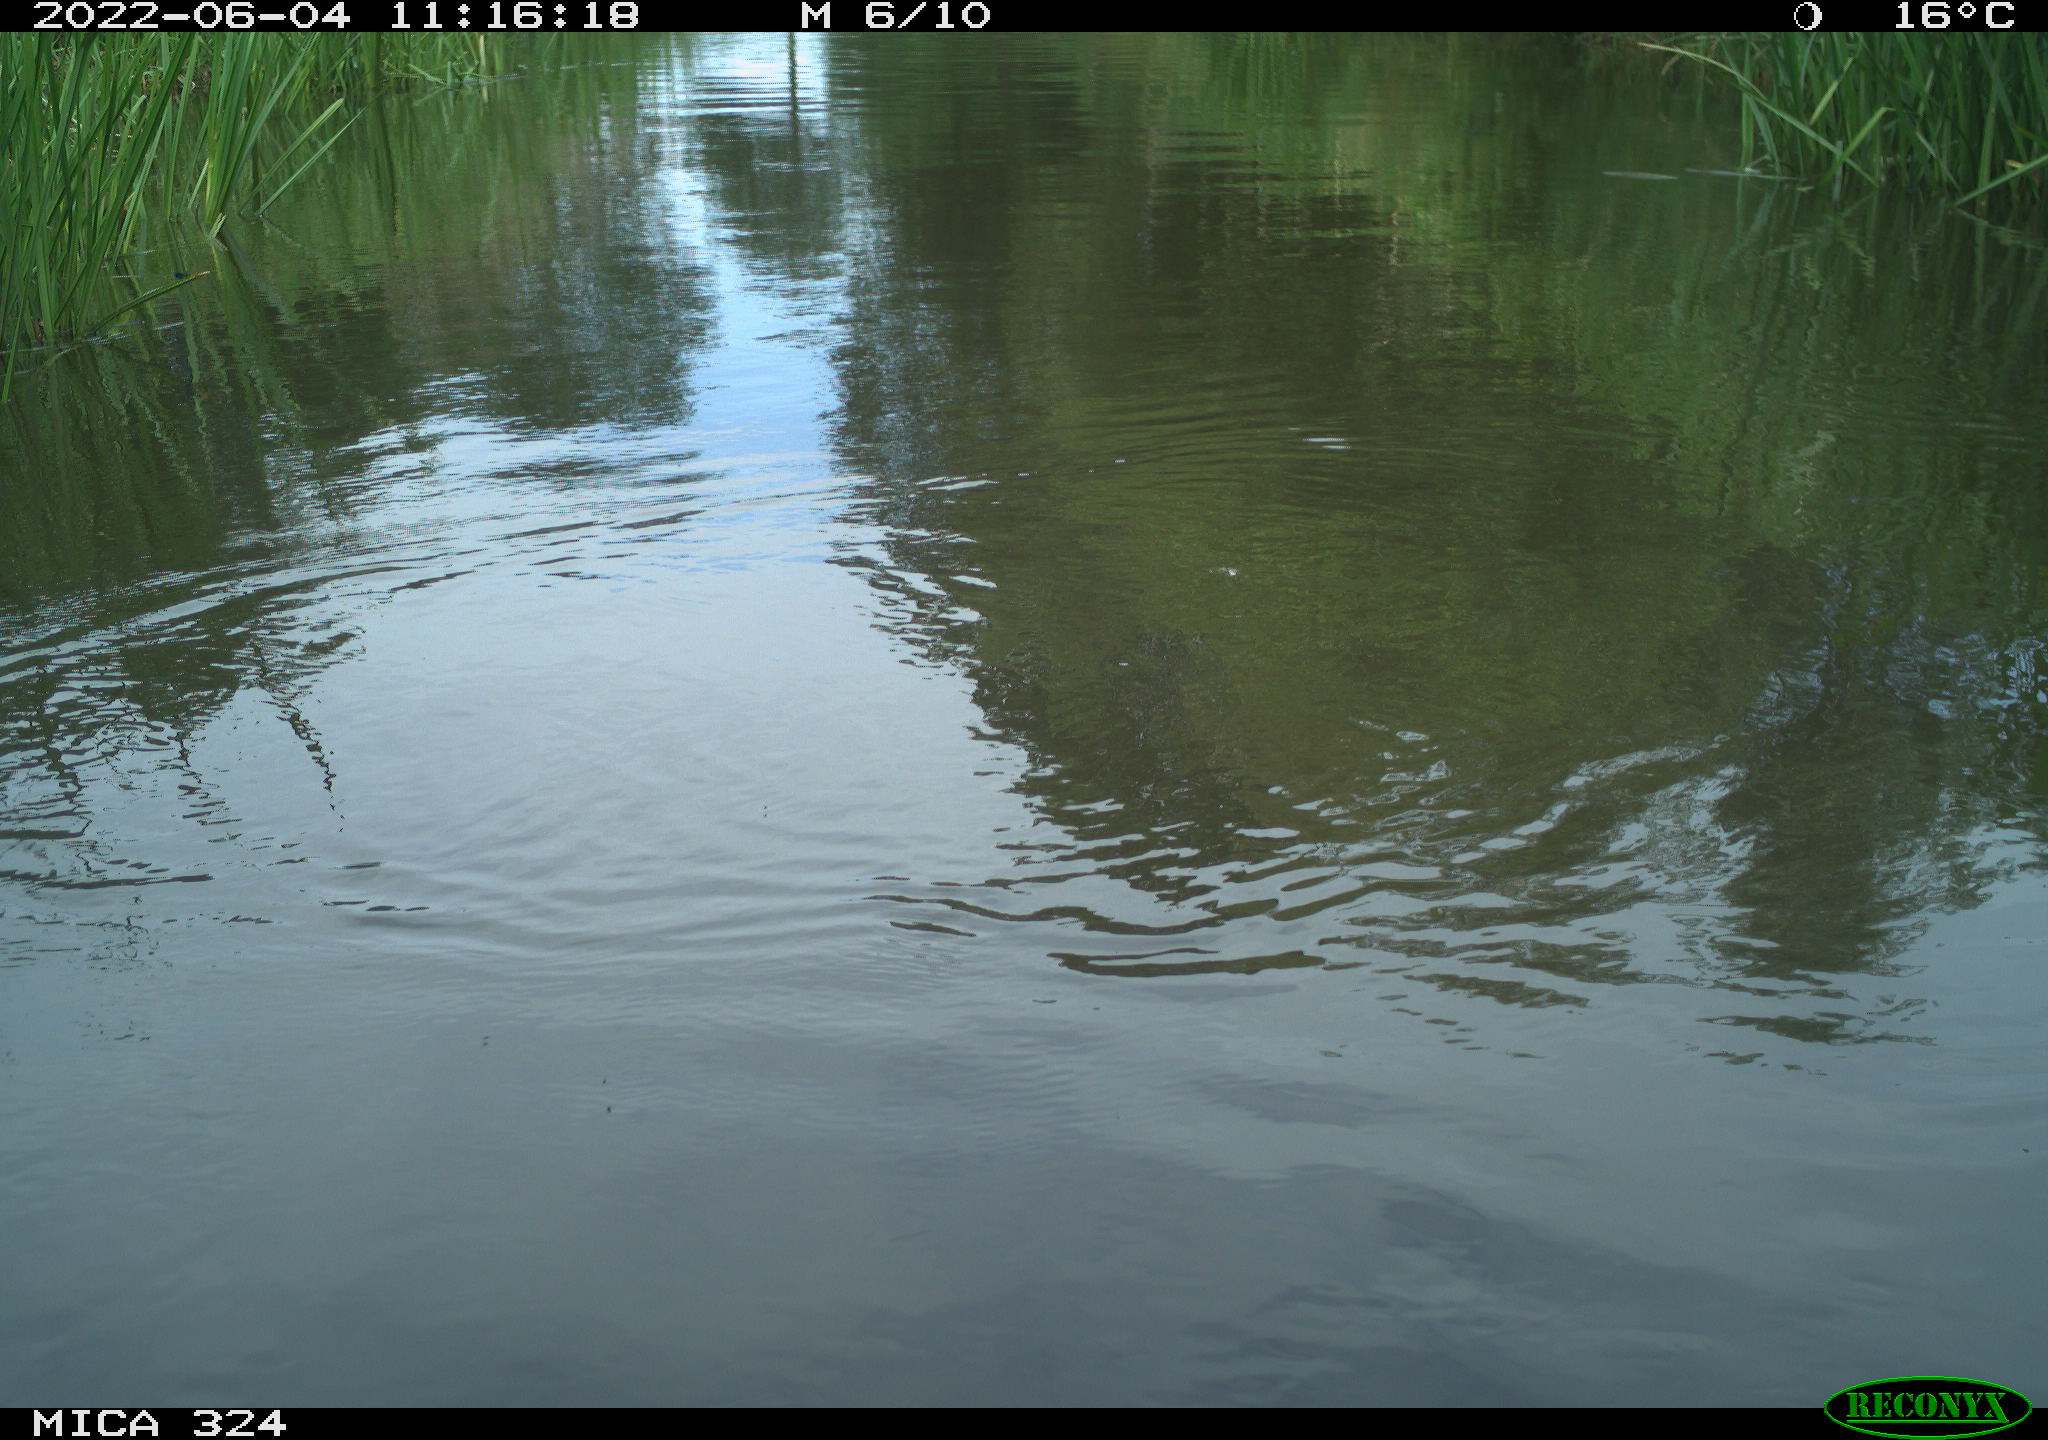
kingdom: Animalia
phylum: Chordata
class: Aves
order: Gruiformes
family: Rallidae
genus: Gallinula
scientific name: Gallinula chloropus
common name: Common moorhen
